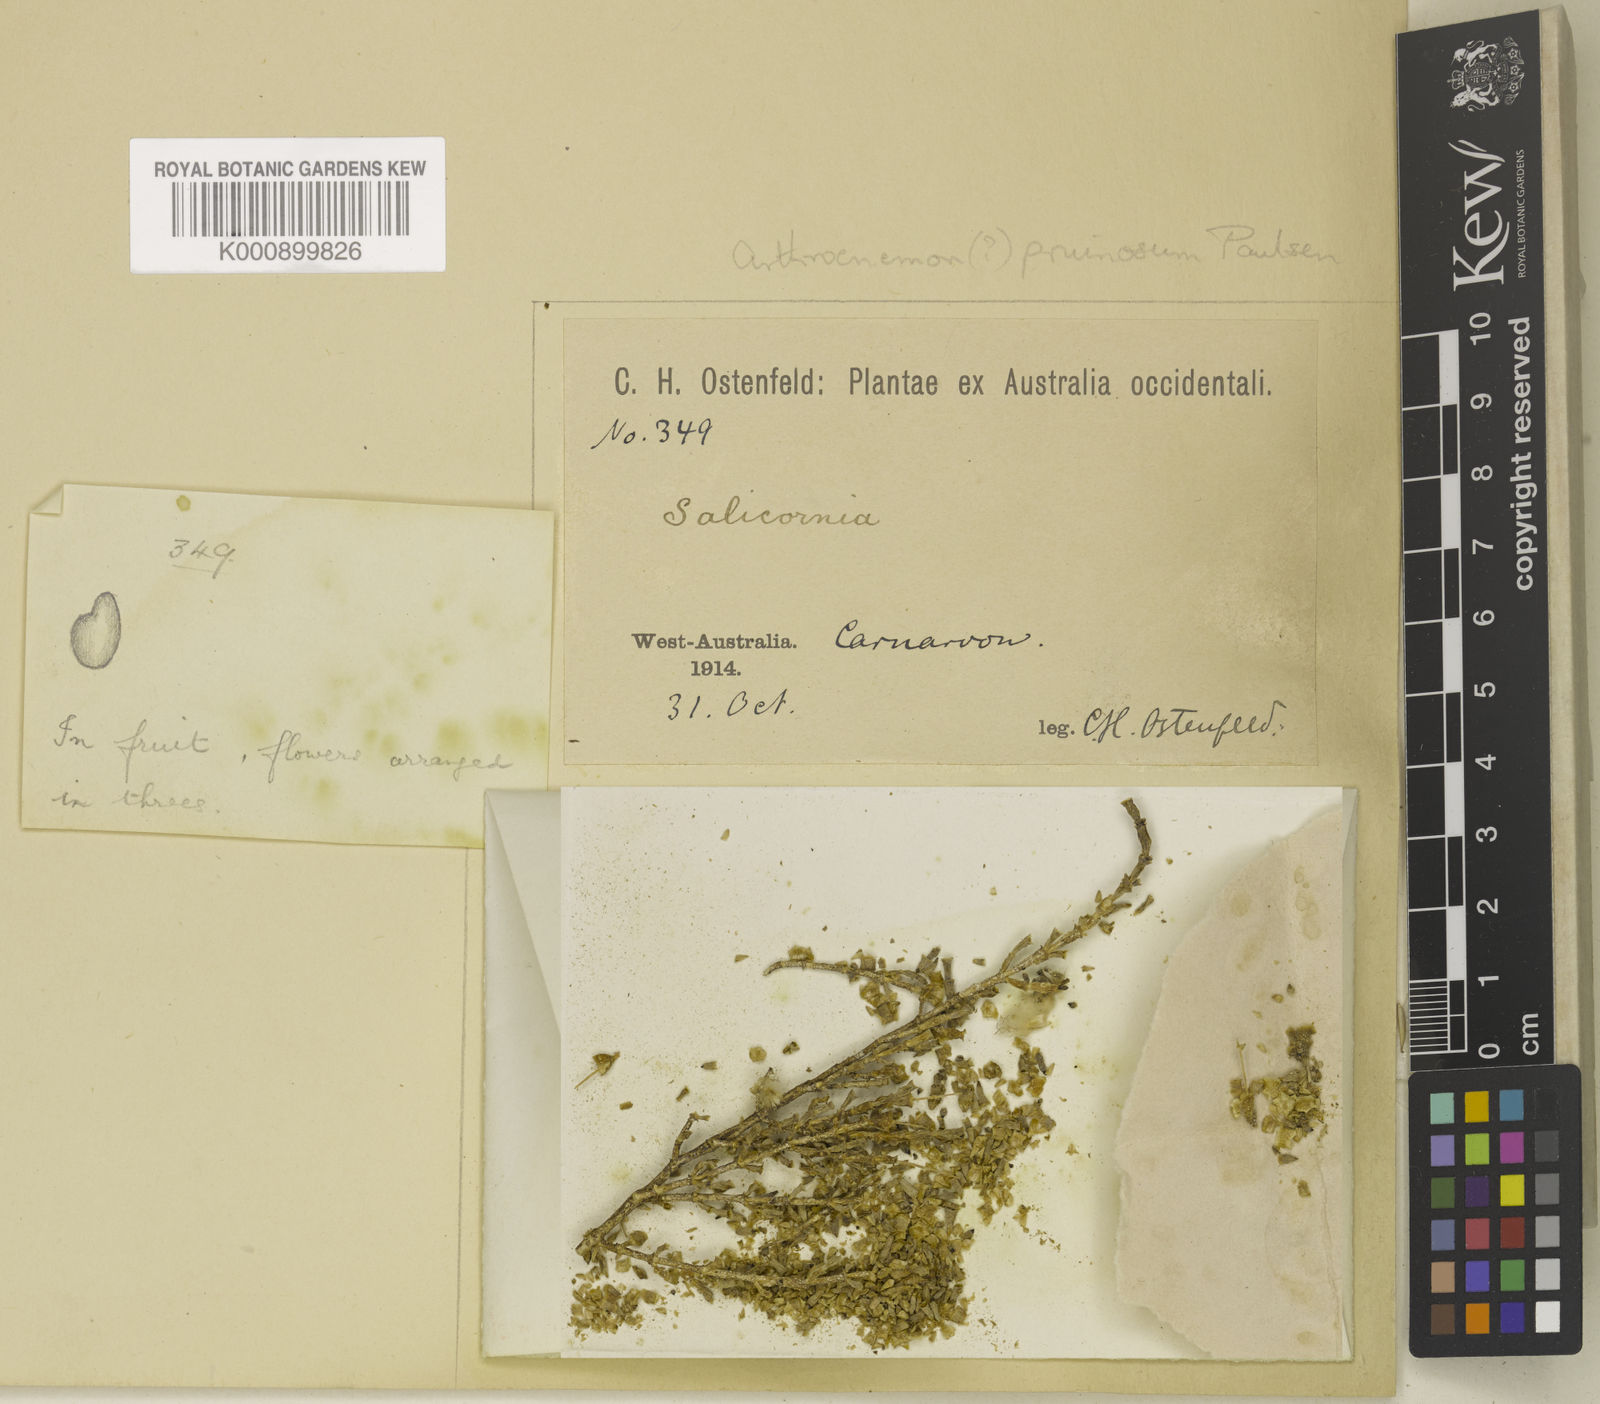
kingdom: Plantae
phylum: Tracheophyta
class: Magnoliopsida
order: Caryophyllales
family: Amaranthaceae
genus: Tecticornia
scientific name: Tecticornia pruinosa
